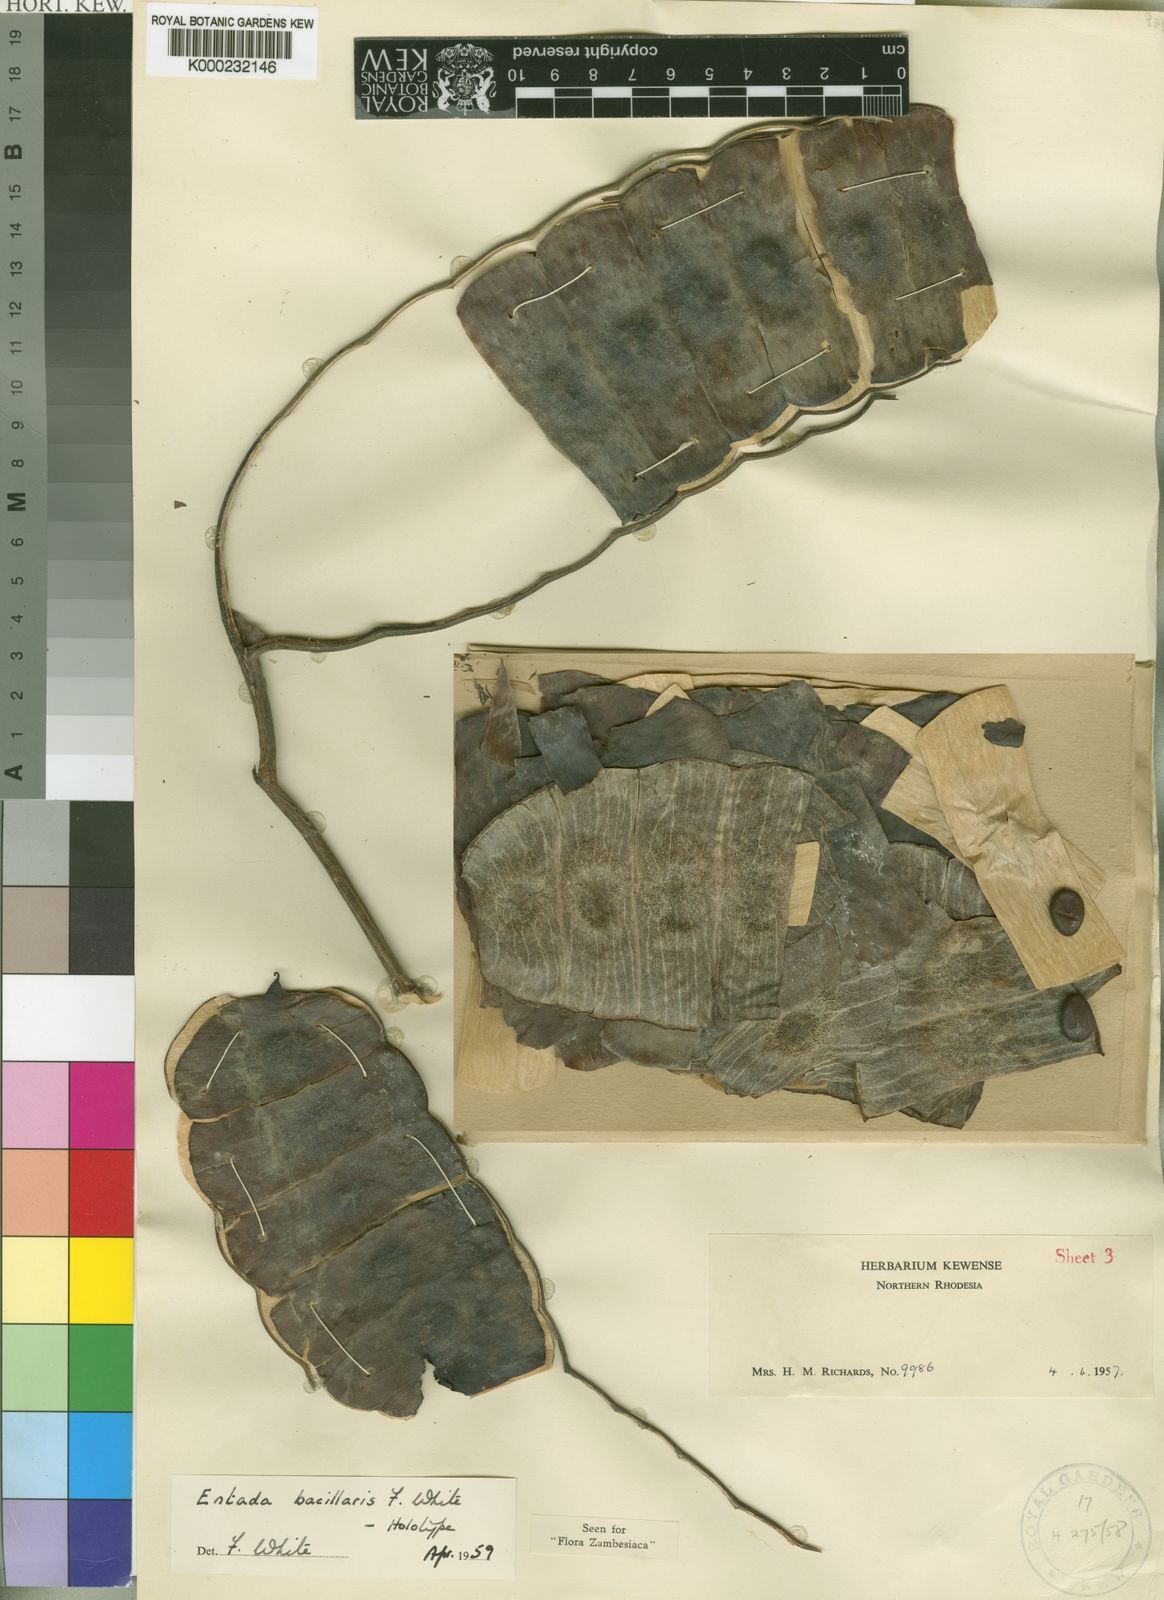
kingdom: Plantae
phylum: Tracheophyta
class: Magnoliopsida
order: Fabales
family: Fabaceae
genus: Entada
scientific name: Entada bacillaris
